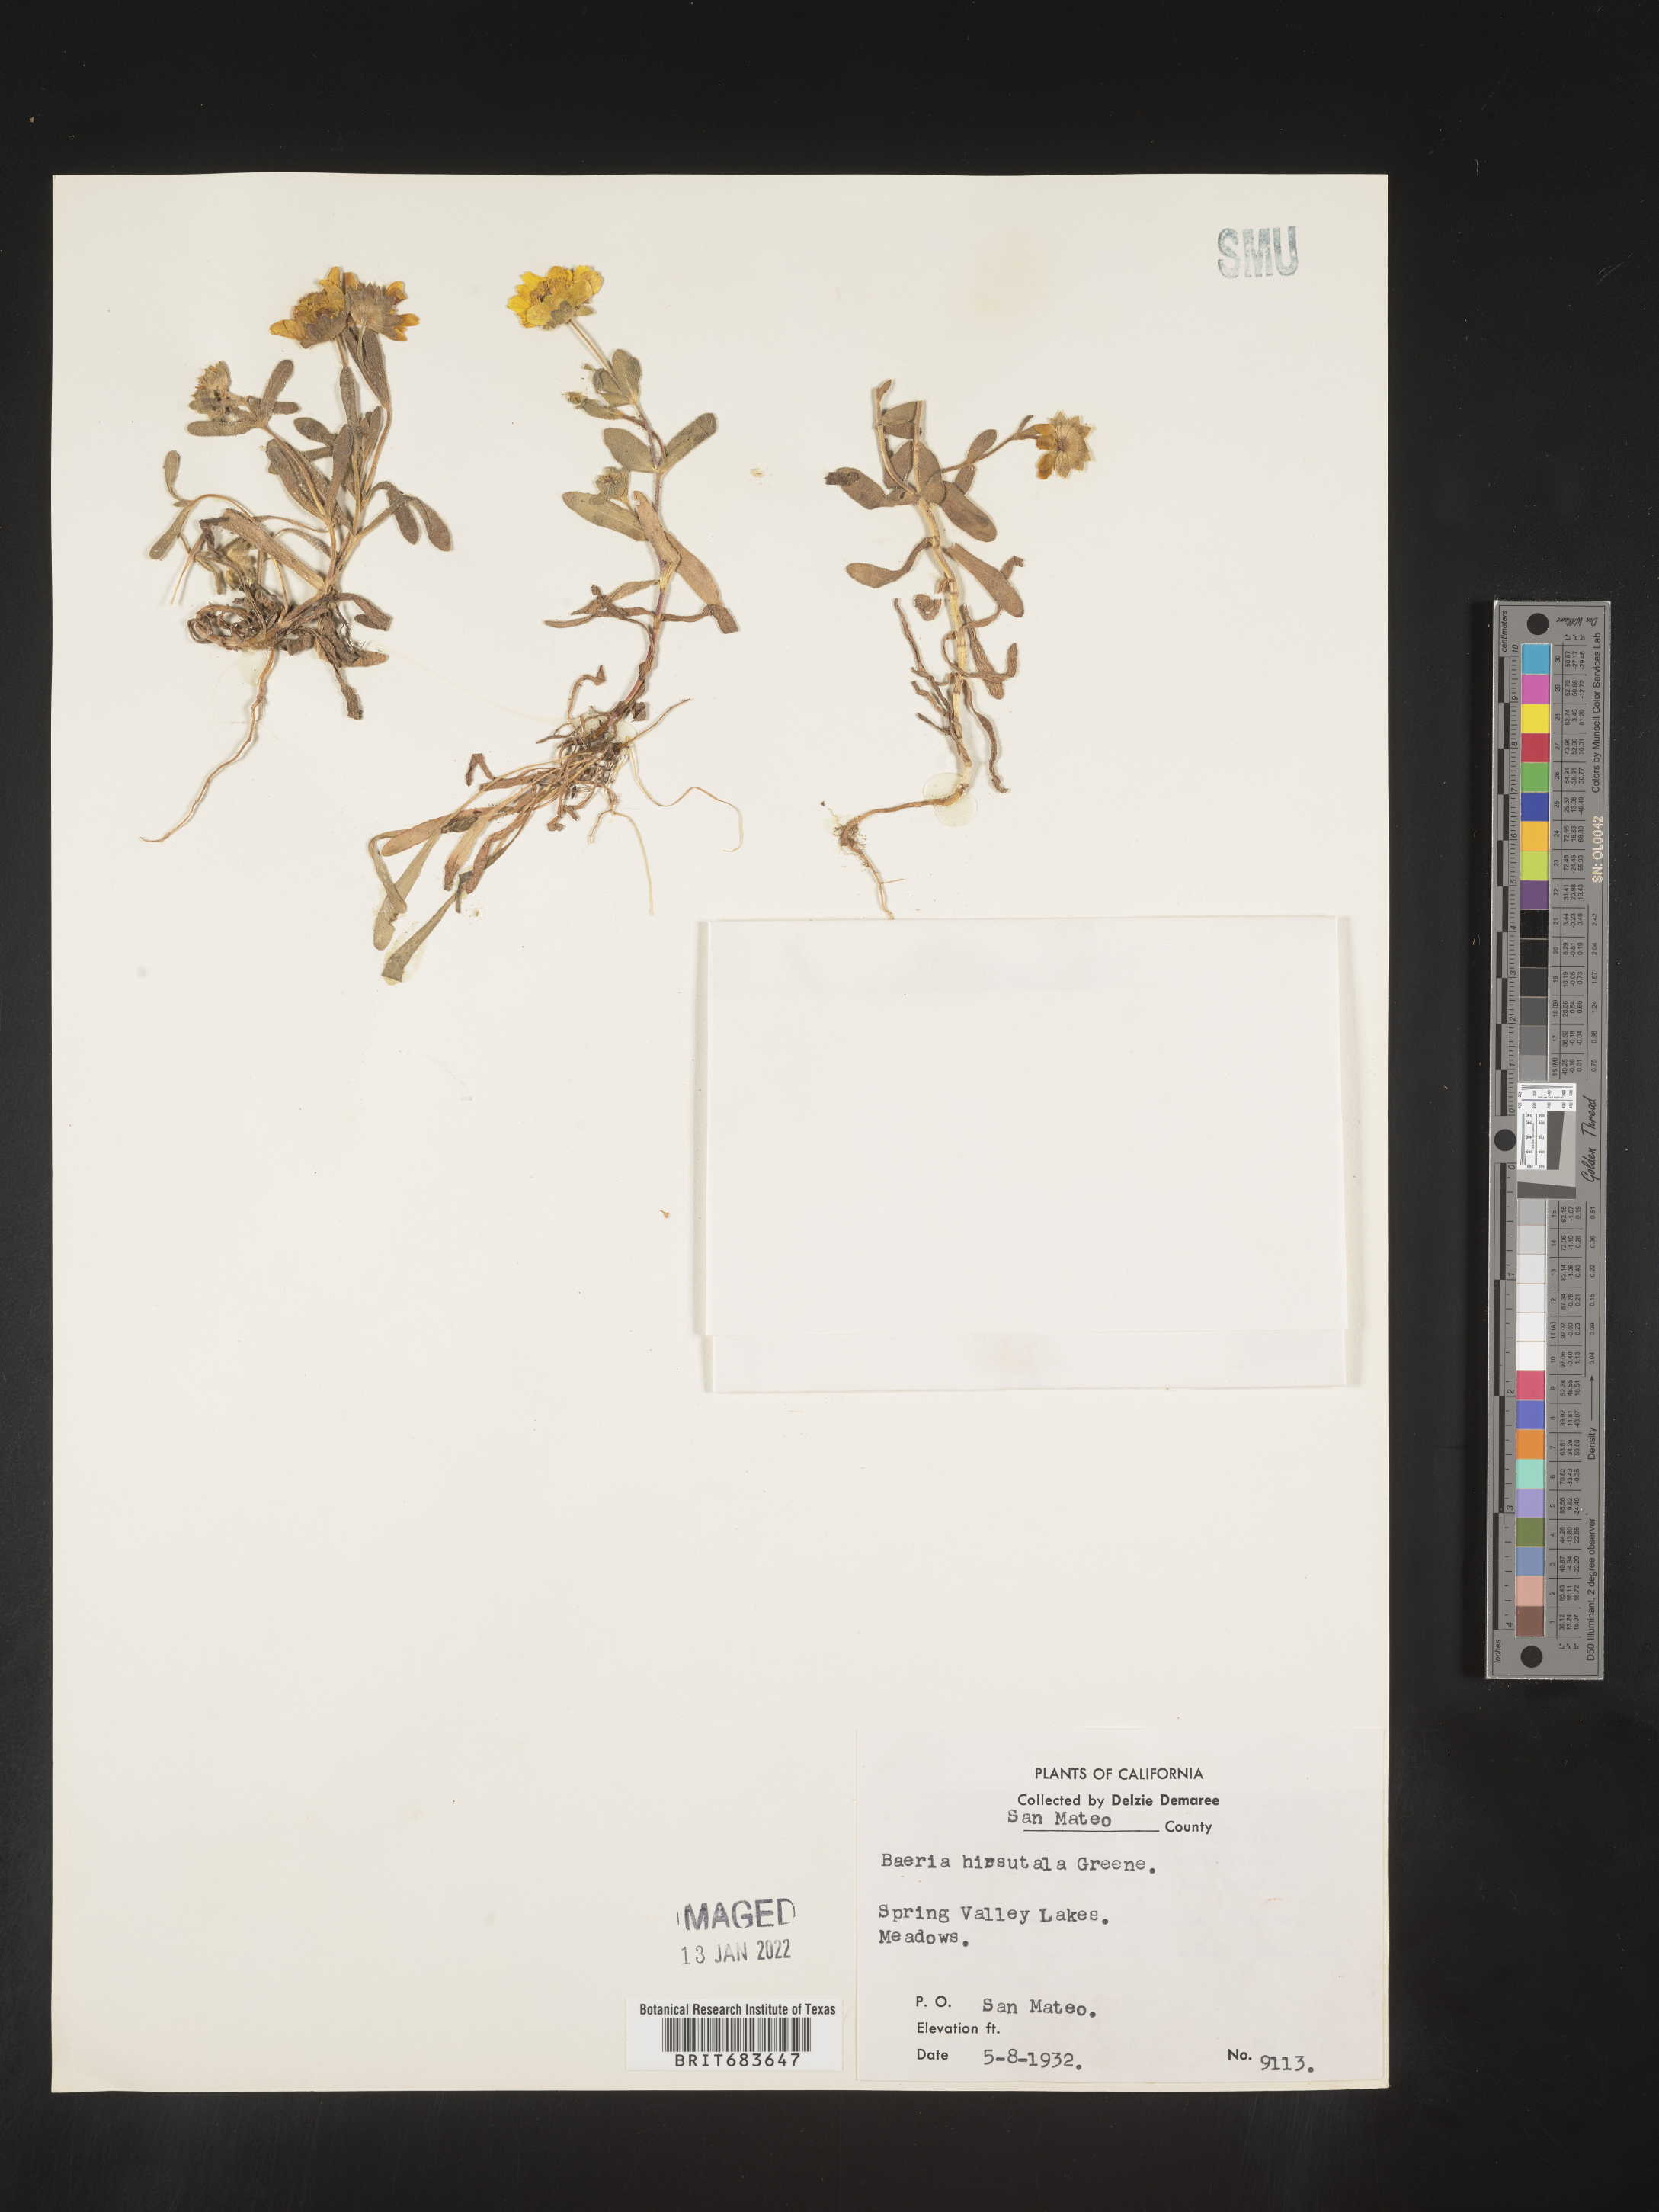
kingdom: Plantae
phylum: Tracheophyta
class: Magnoliopsida
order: Asterales
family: Asteraceae
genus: Lasthenia
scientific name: Lasthenia
